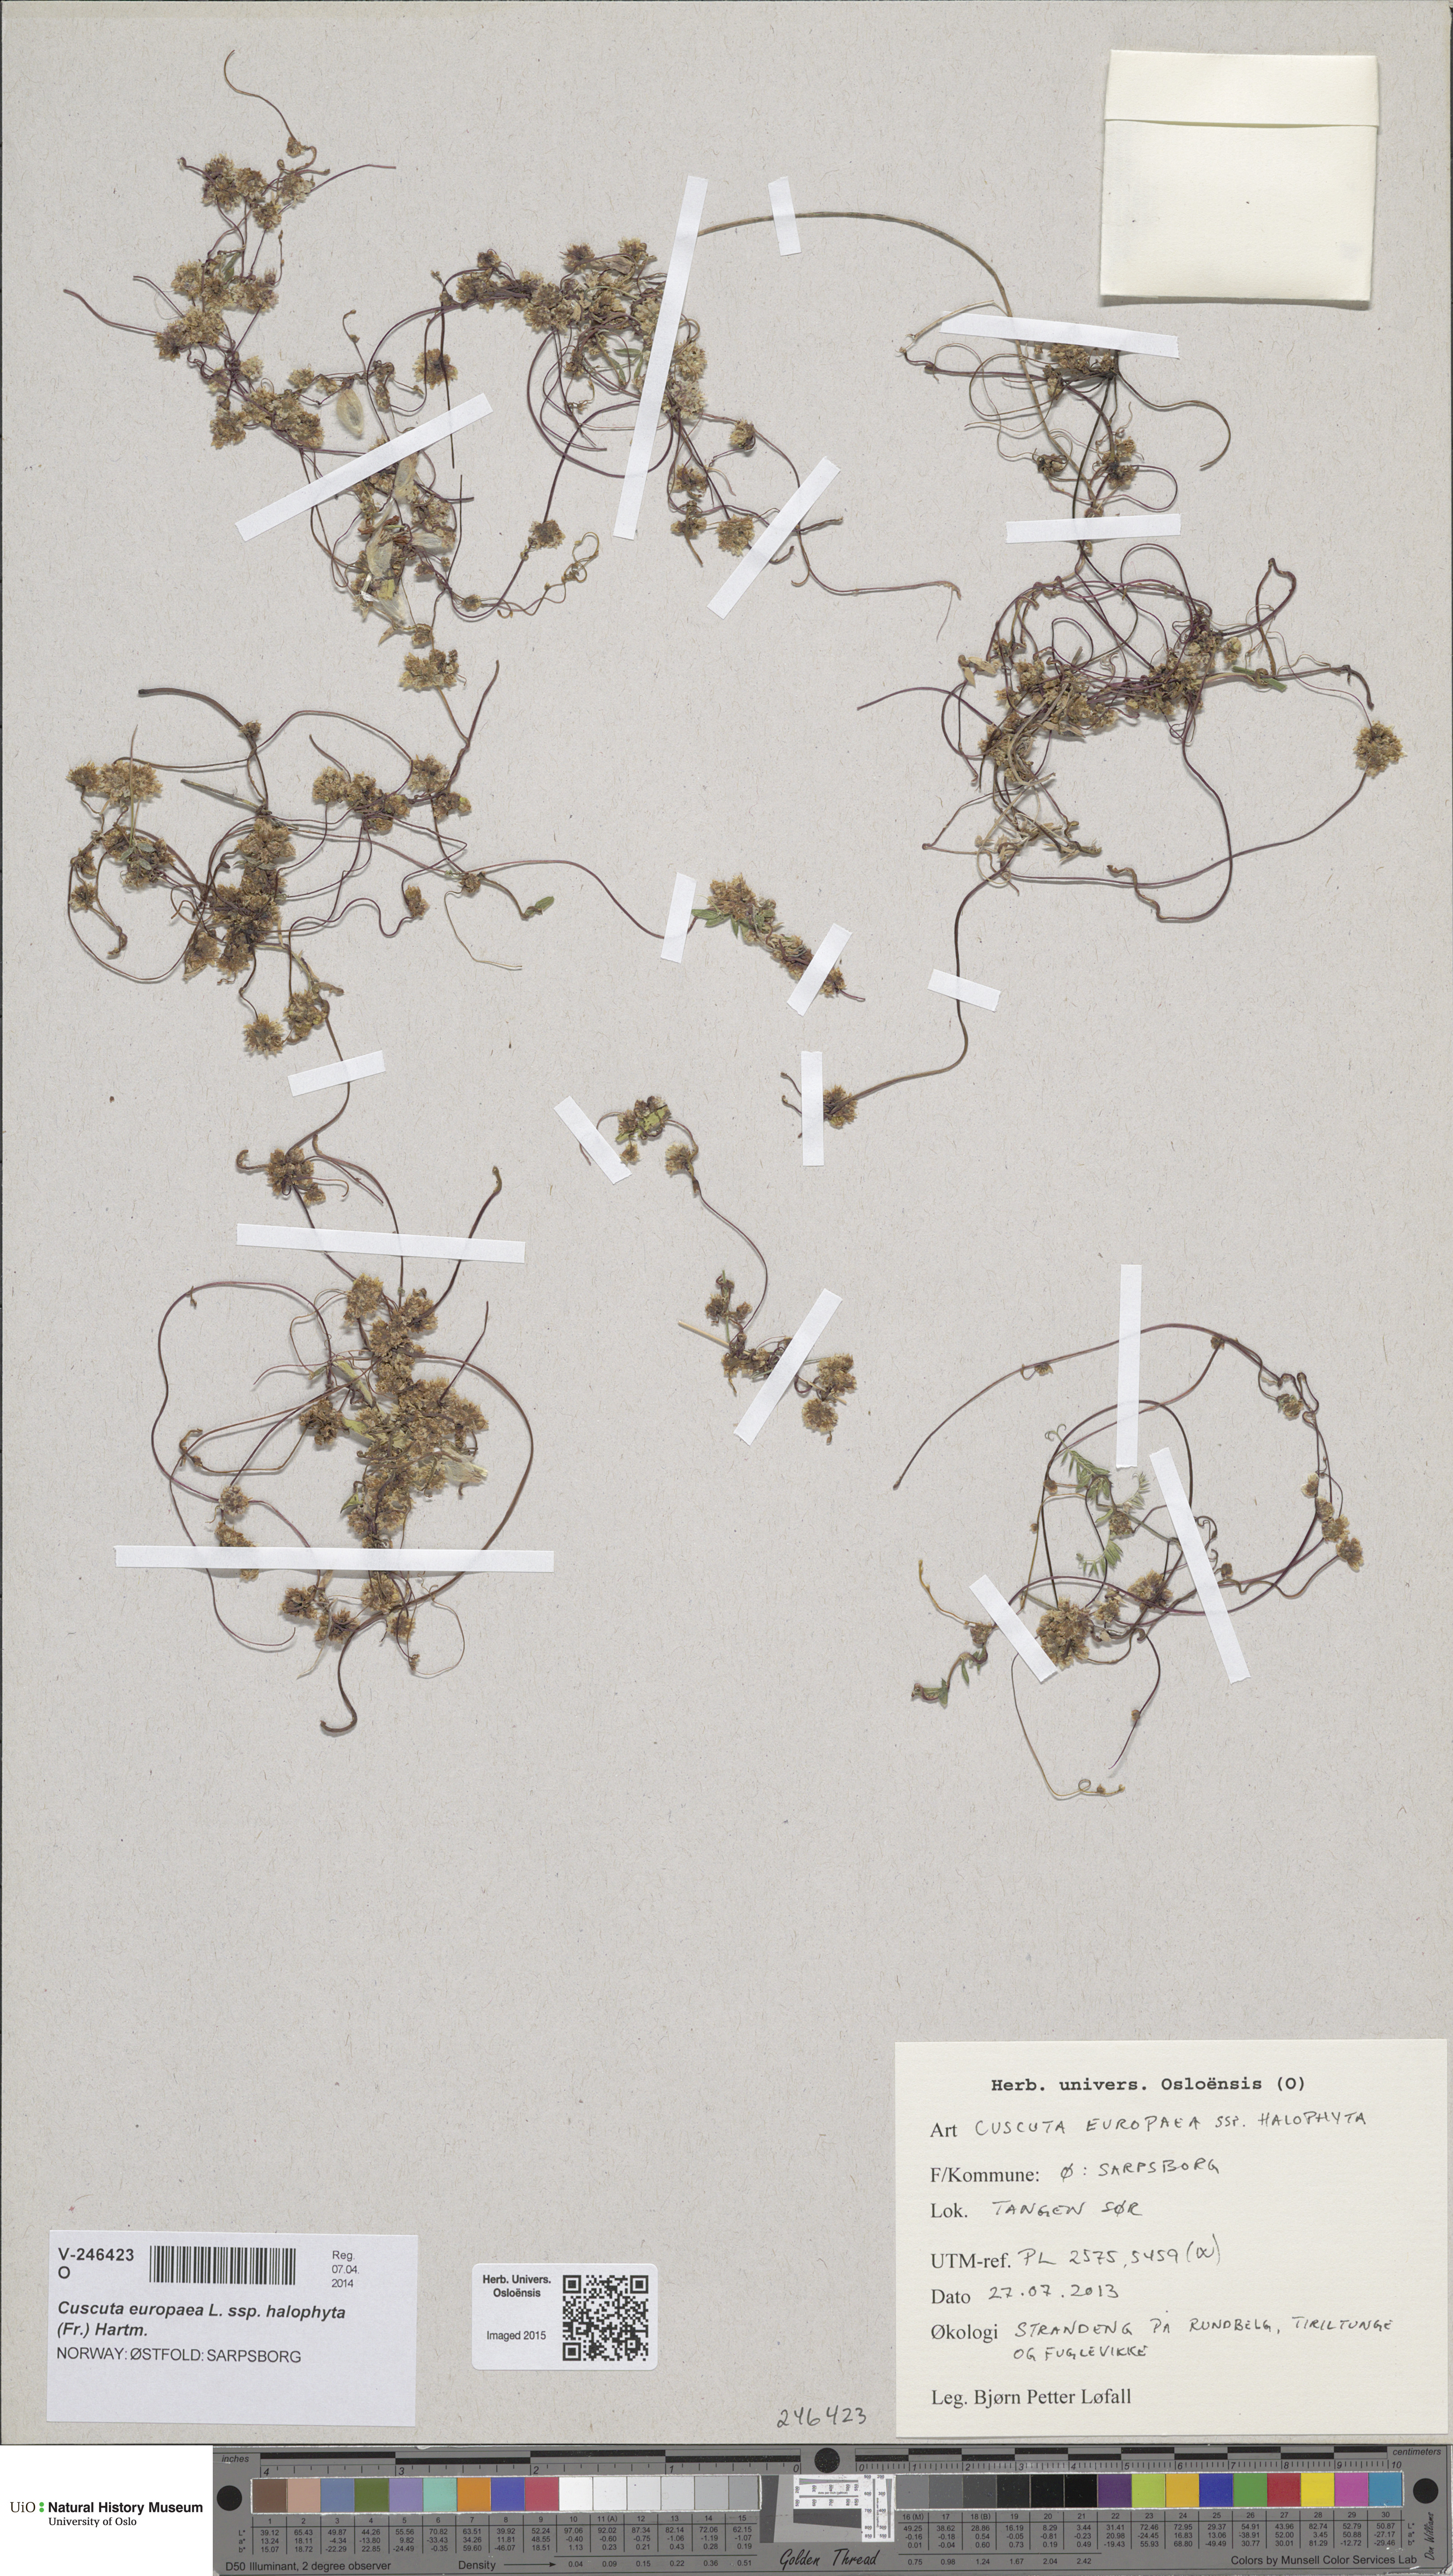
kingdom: Plantae
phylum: Tracheophyta
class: Magnoliopsida
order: Solanales
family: Convolvulaceae
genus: Cuscuta
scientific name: Cuscuta europaea
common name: Greater dodder
